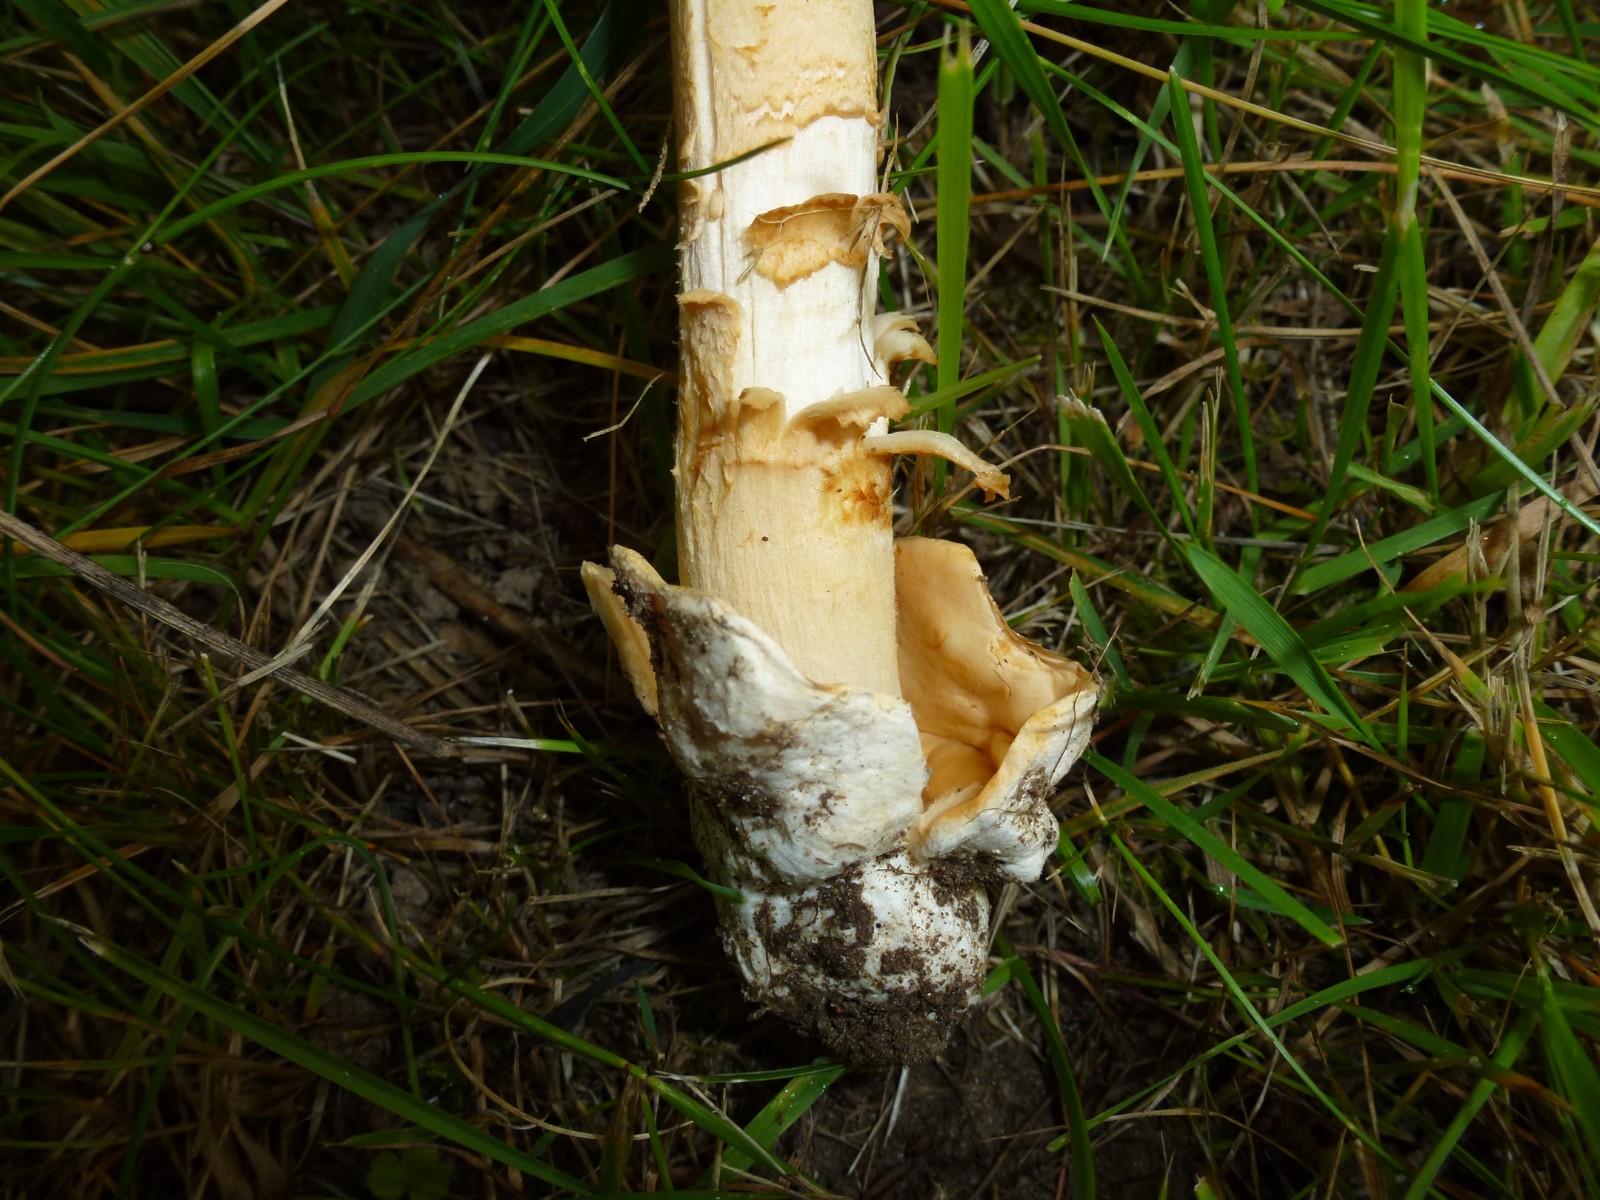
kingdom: Fungi
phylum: Basidiomycota
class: Agaricomycetes
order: Agaricales
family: Amanitaceae
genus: Amanita
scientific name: Amanita
